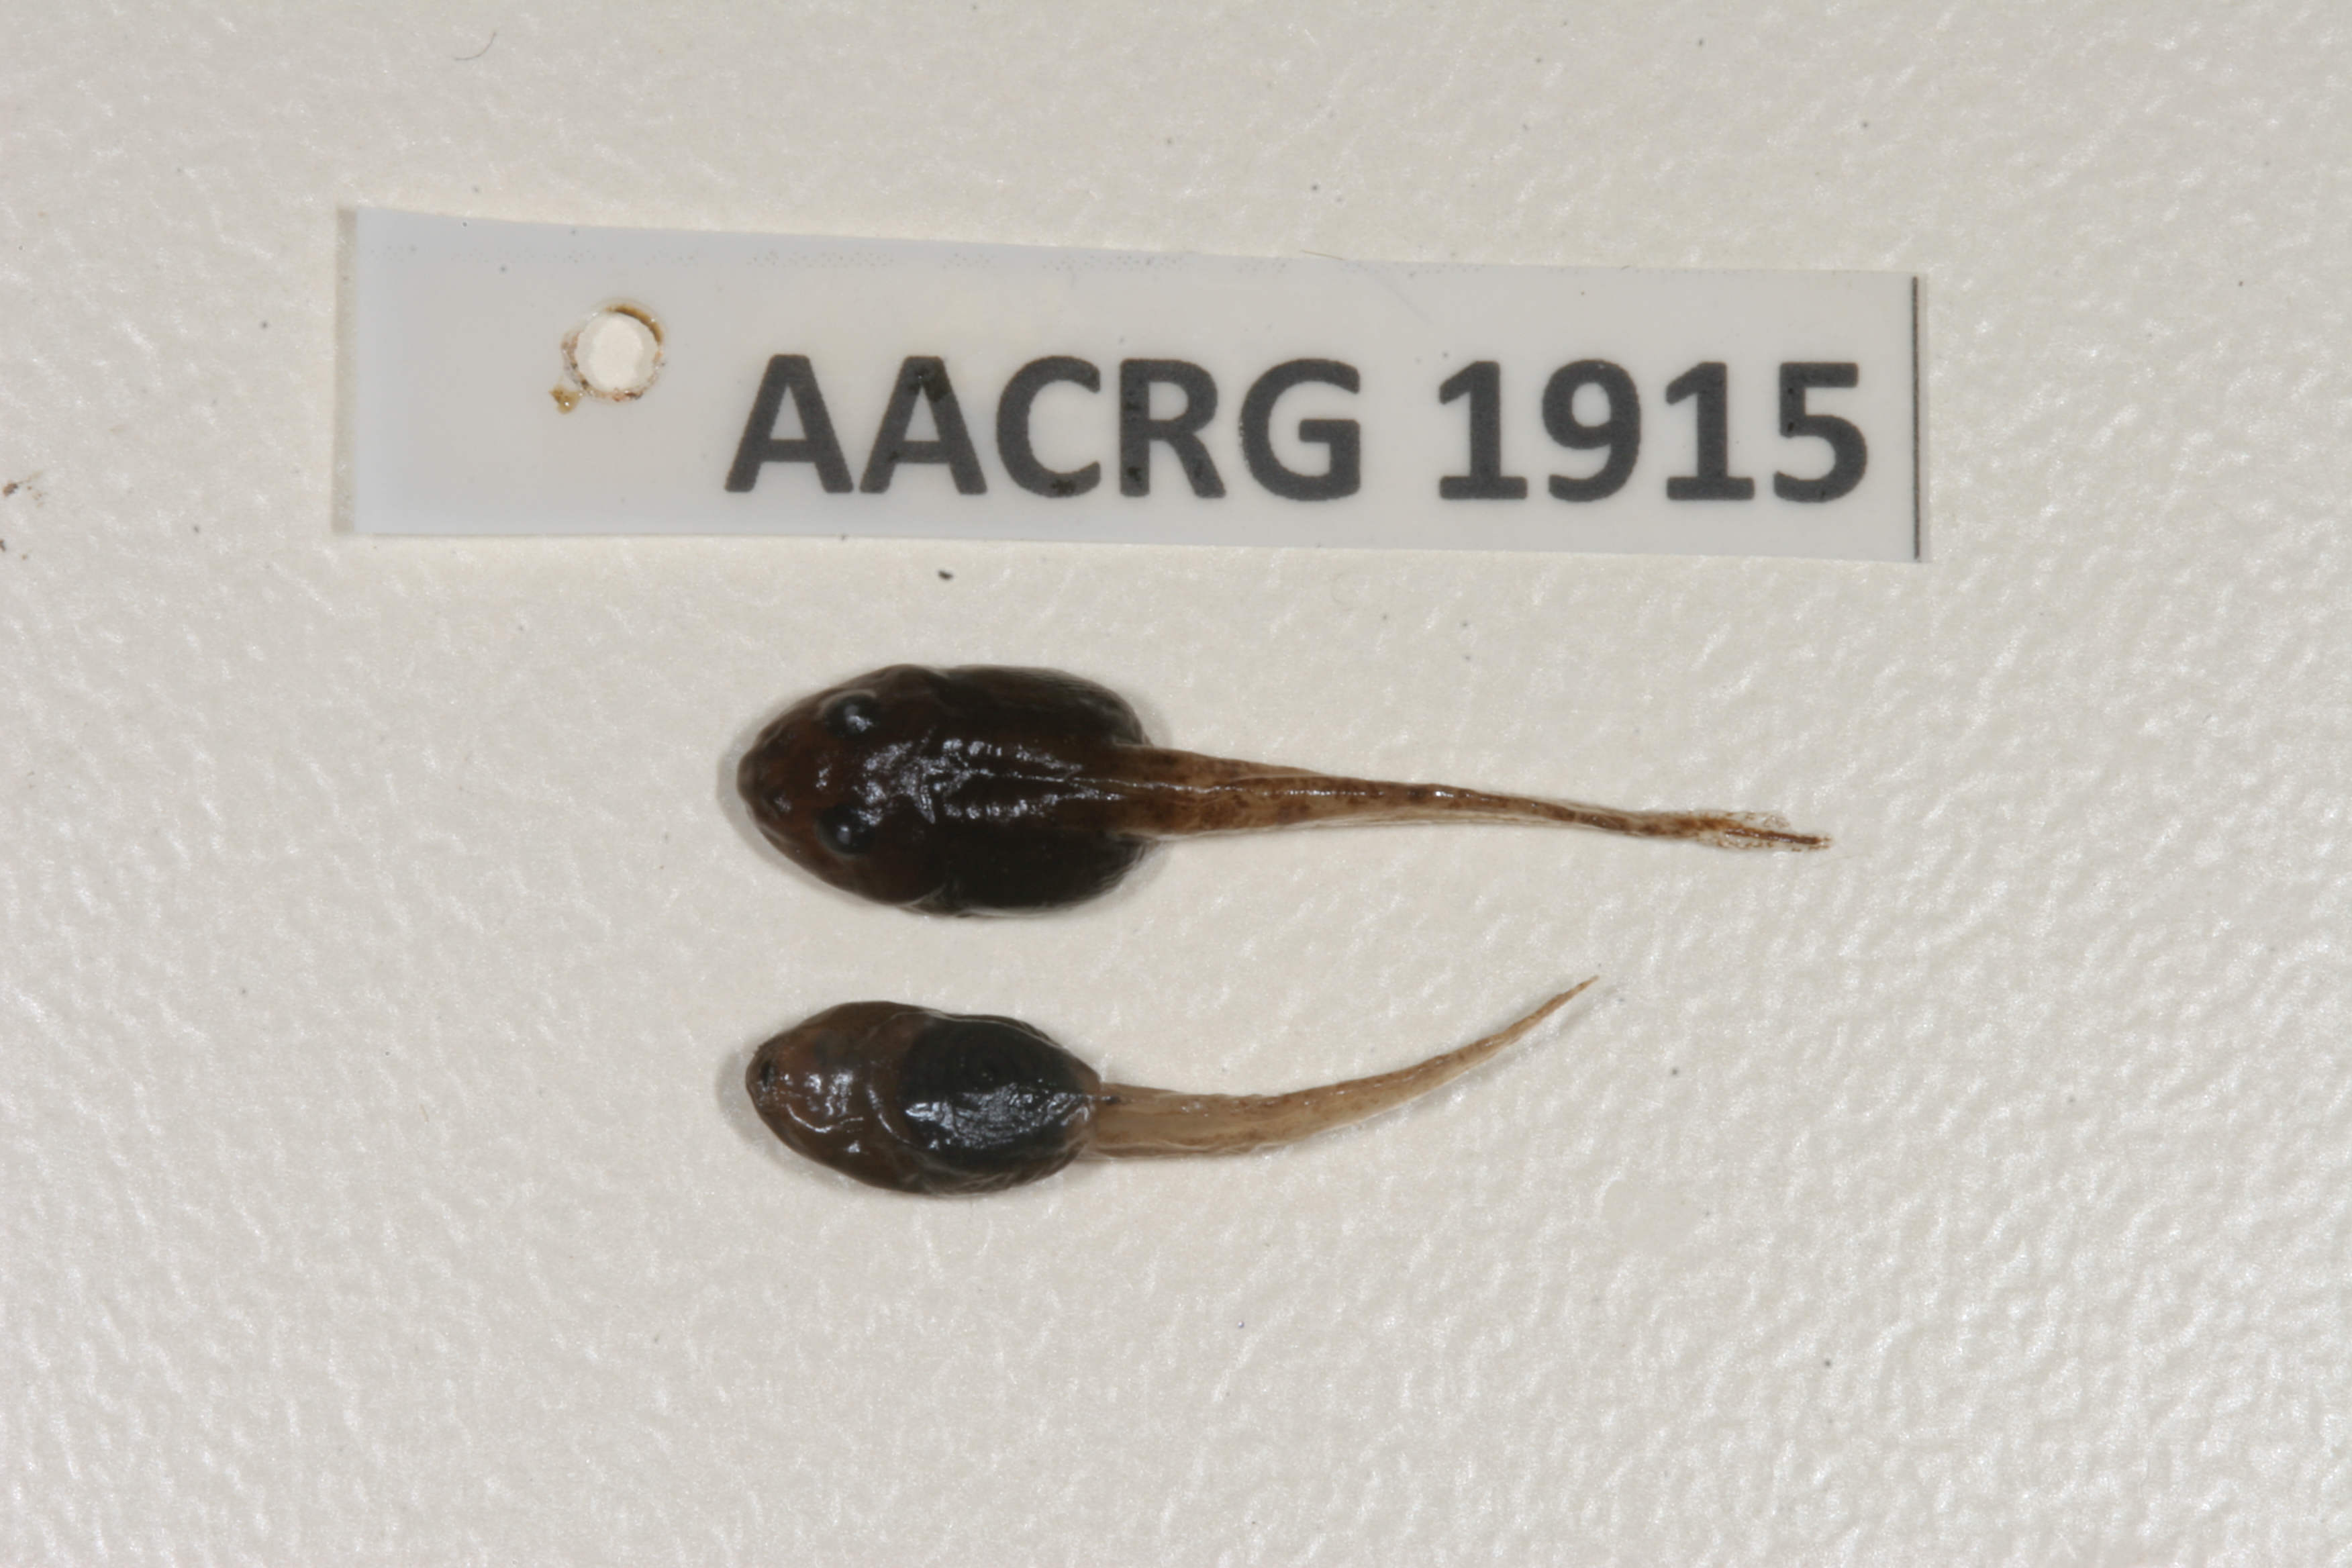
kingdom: Animalia
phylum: Chordata
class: Amphibia
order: Anura
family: Ptychadenidae
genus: Ptychadena
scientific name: Ptychadena subpunctata
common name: Bocage's grassland frog
